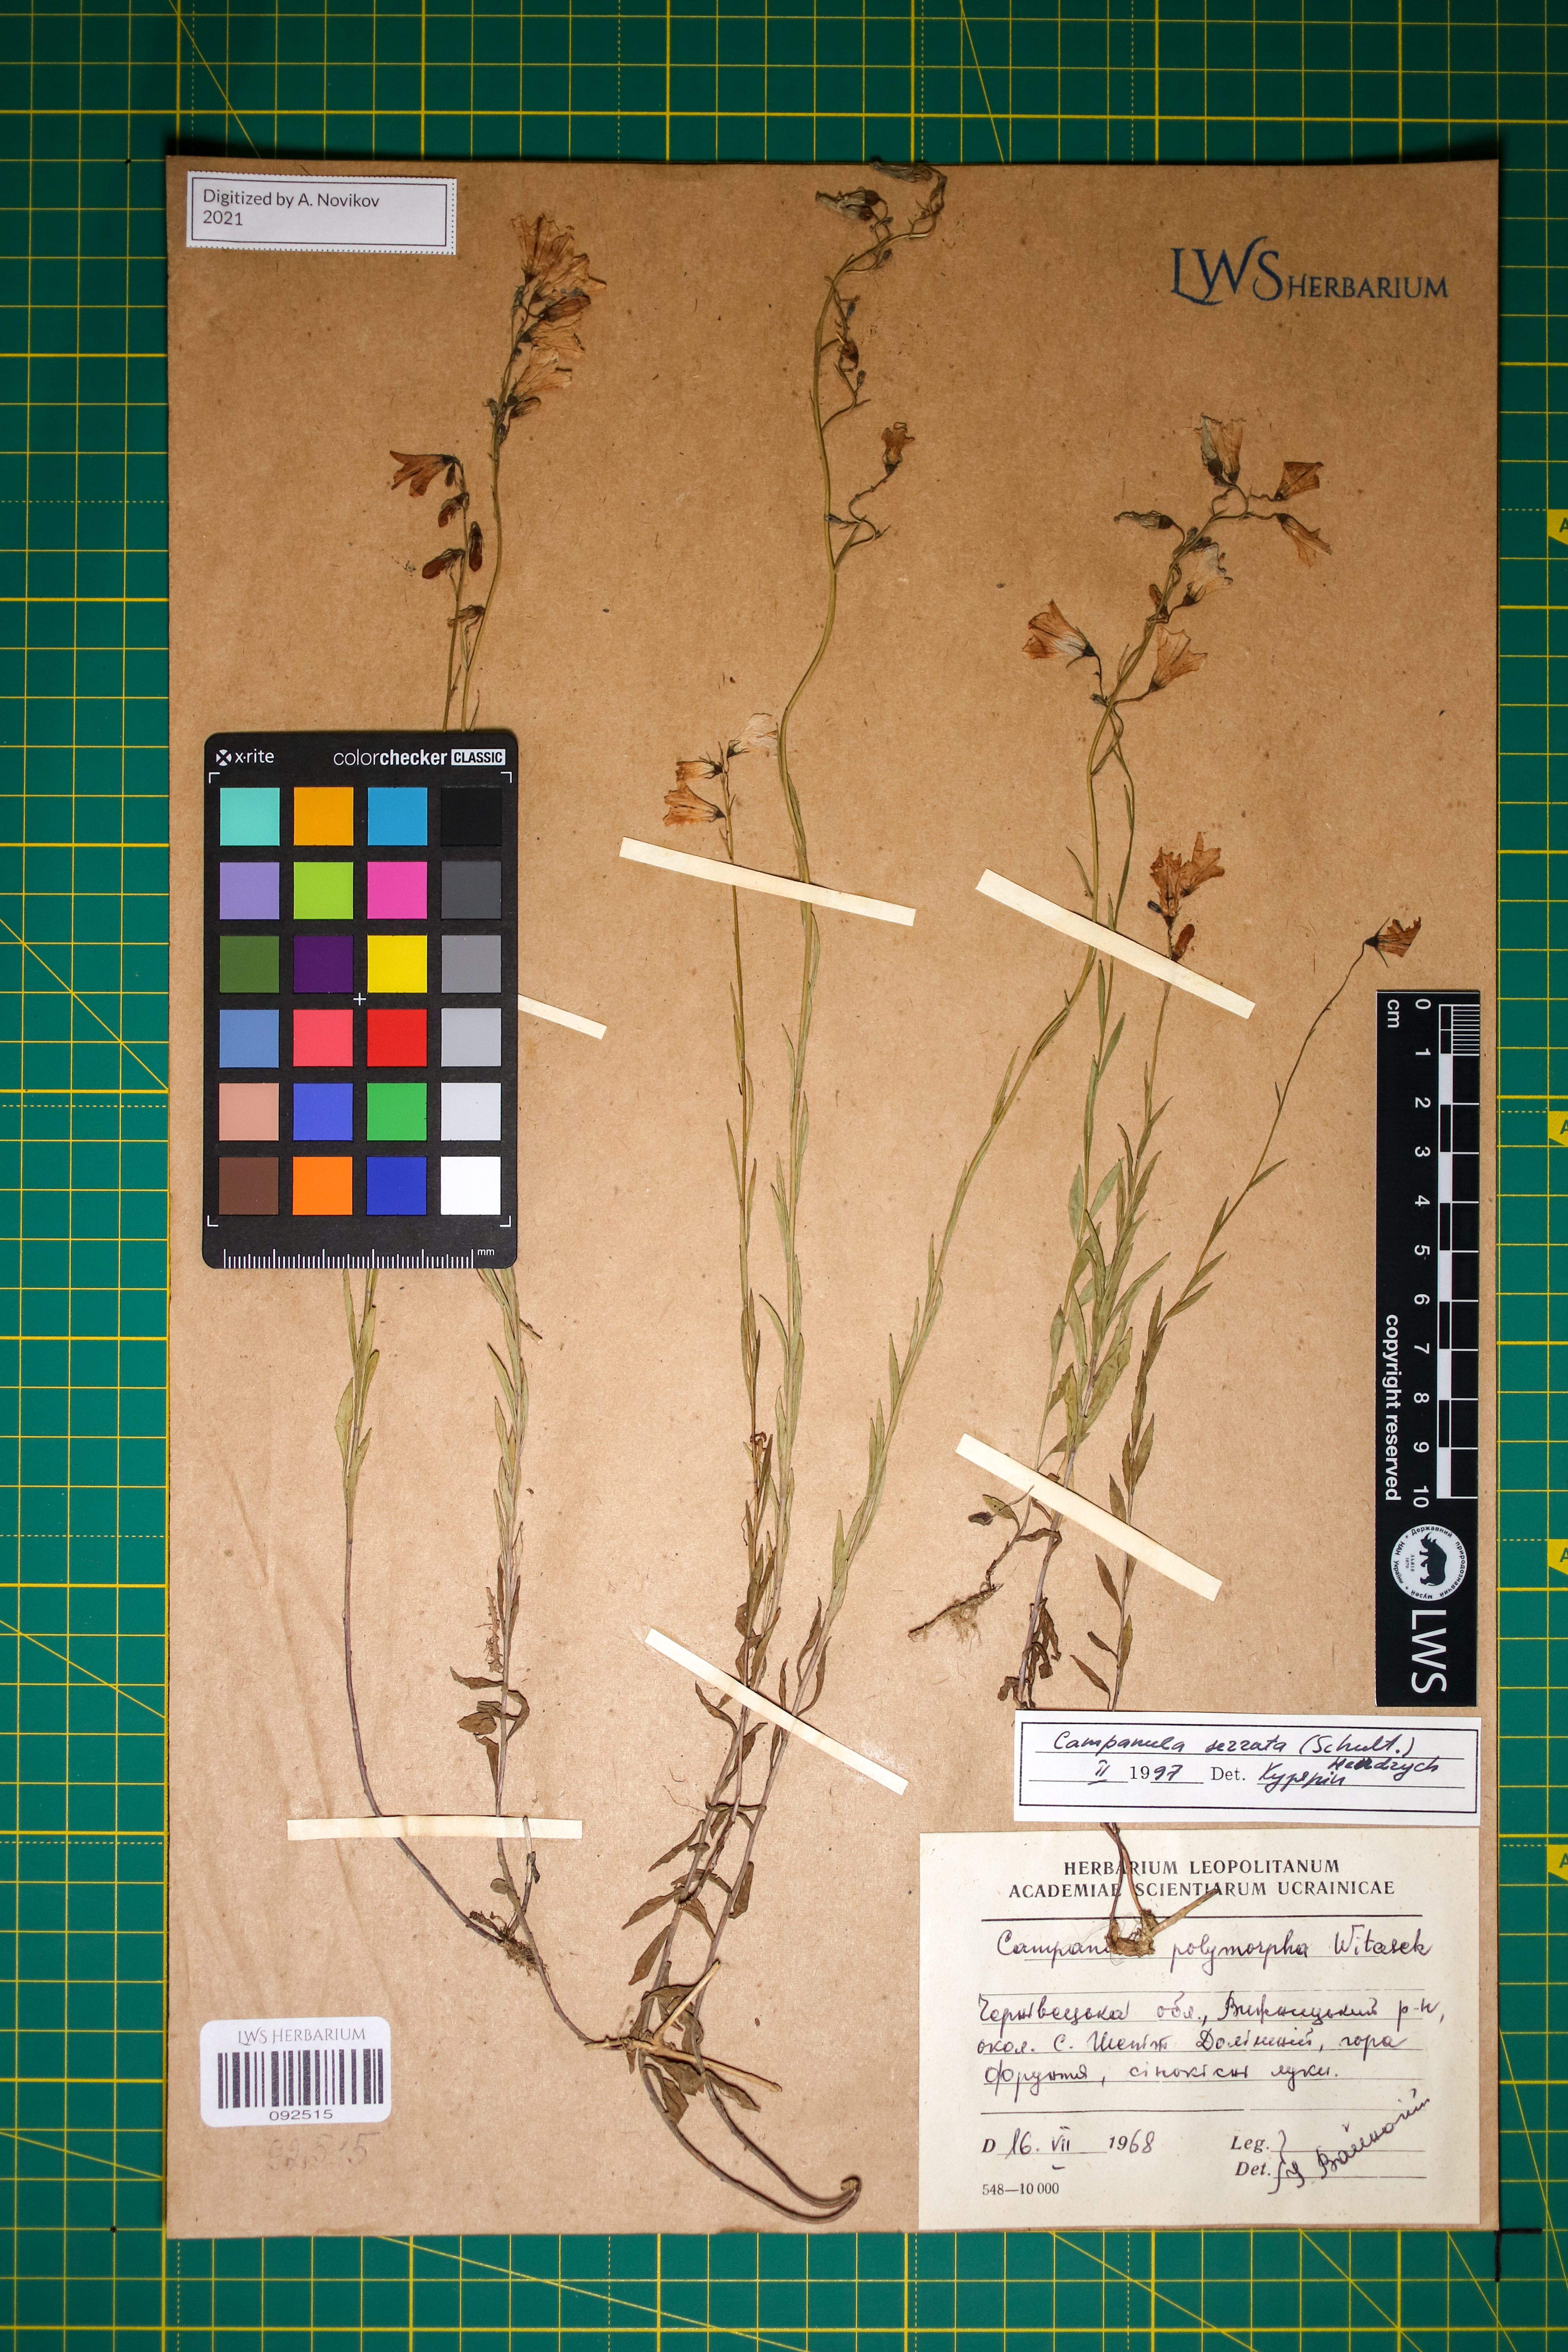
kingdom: Plantae
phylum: Tracheophyta
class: Magnoliopsida
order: Asterales
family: Campanulaceae
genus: Campanula
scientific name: Campanula serrata
